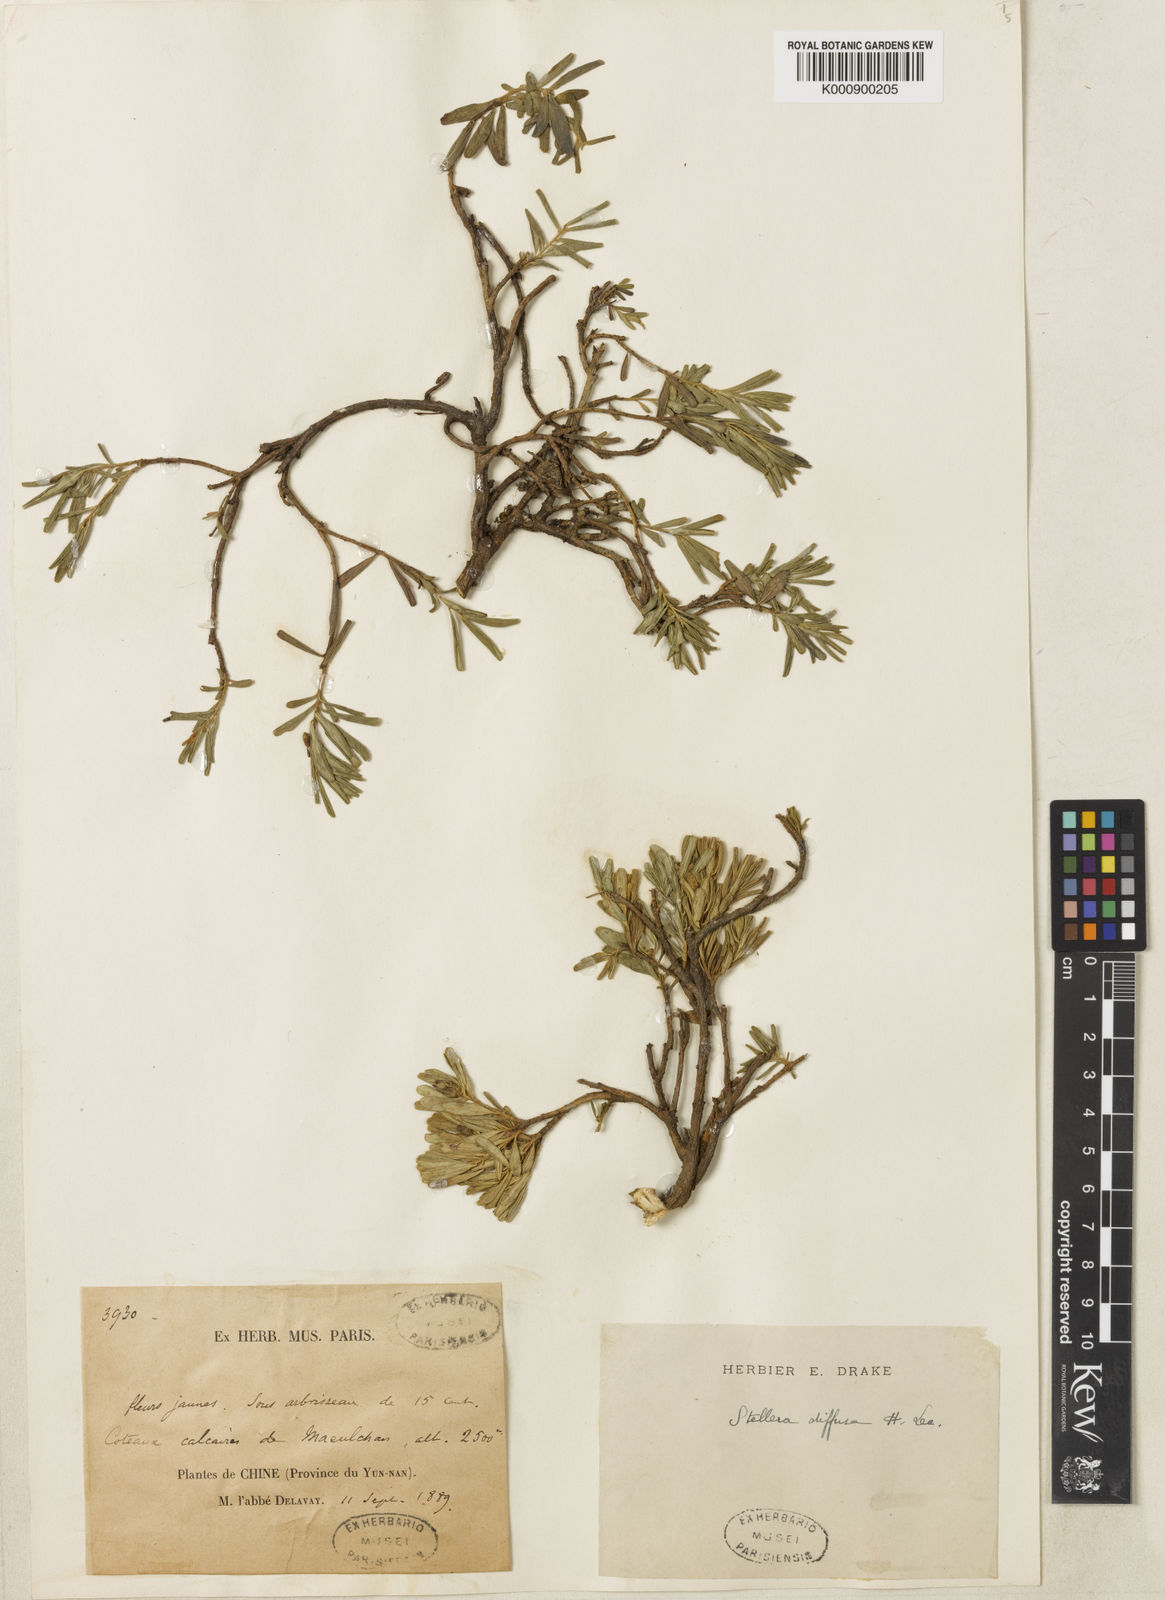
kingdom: Plantae
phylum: Tracheophyta
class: Magnoliopsida
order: Malvales
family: Thymelaeaceae
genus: Wikstroemia
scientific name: Wikstroemia rosmarinifolia
